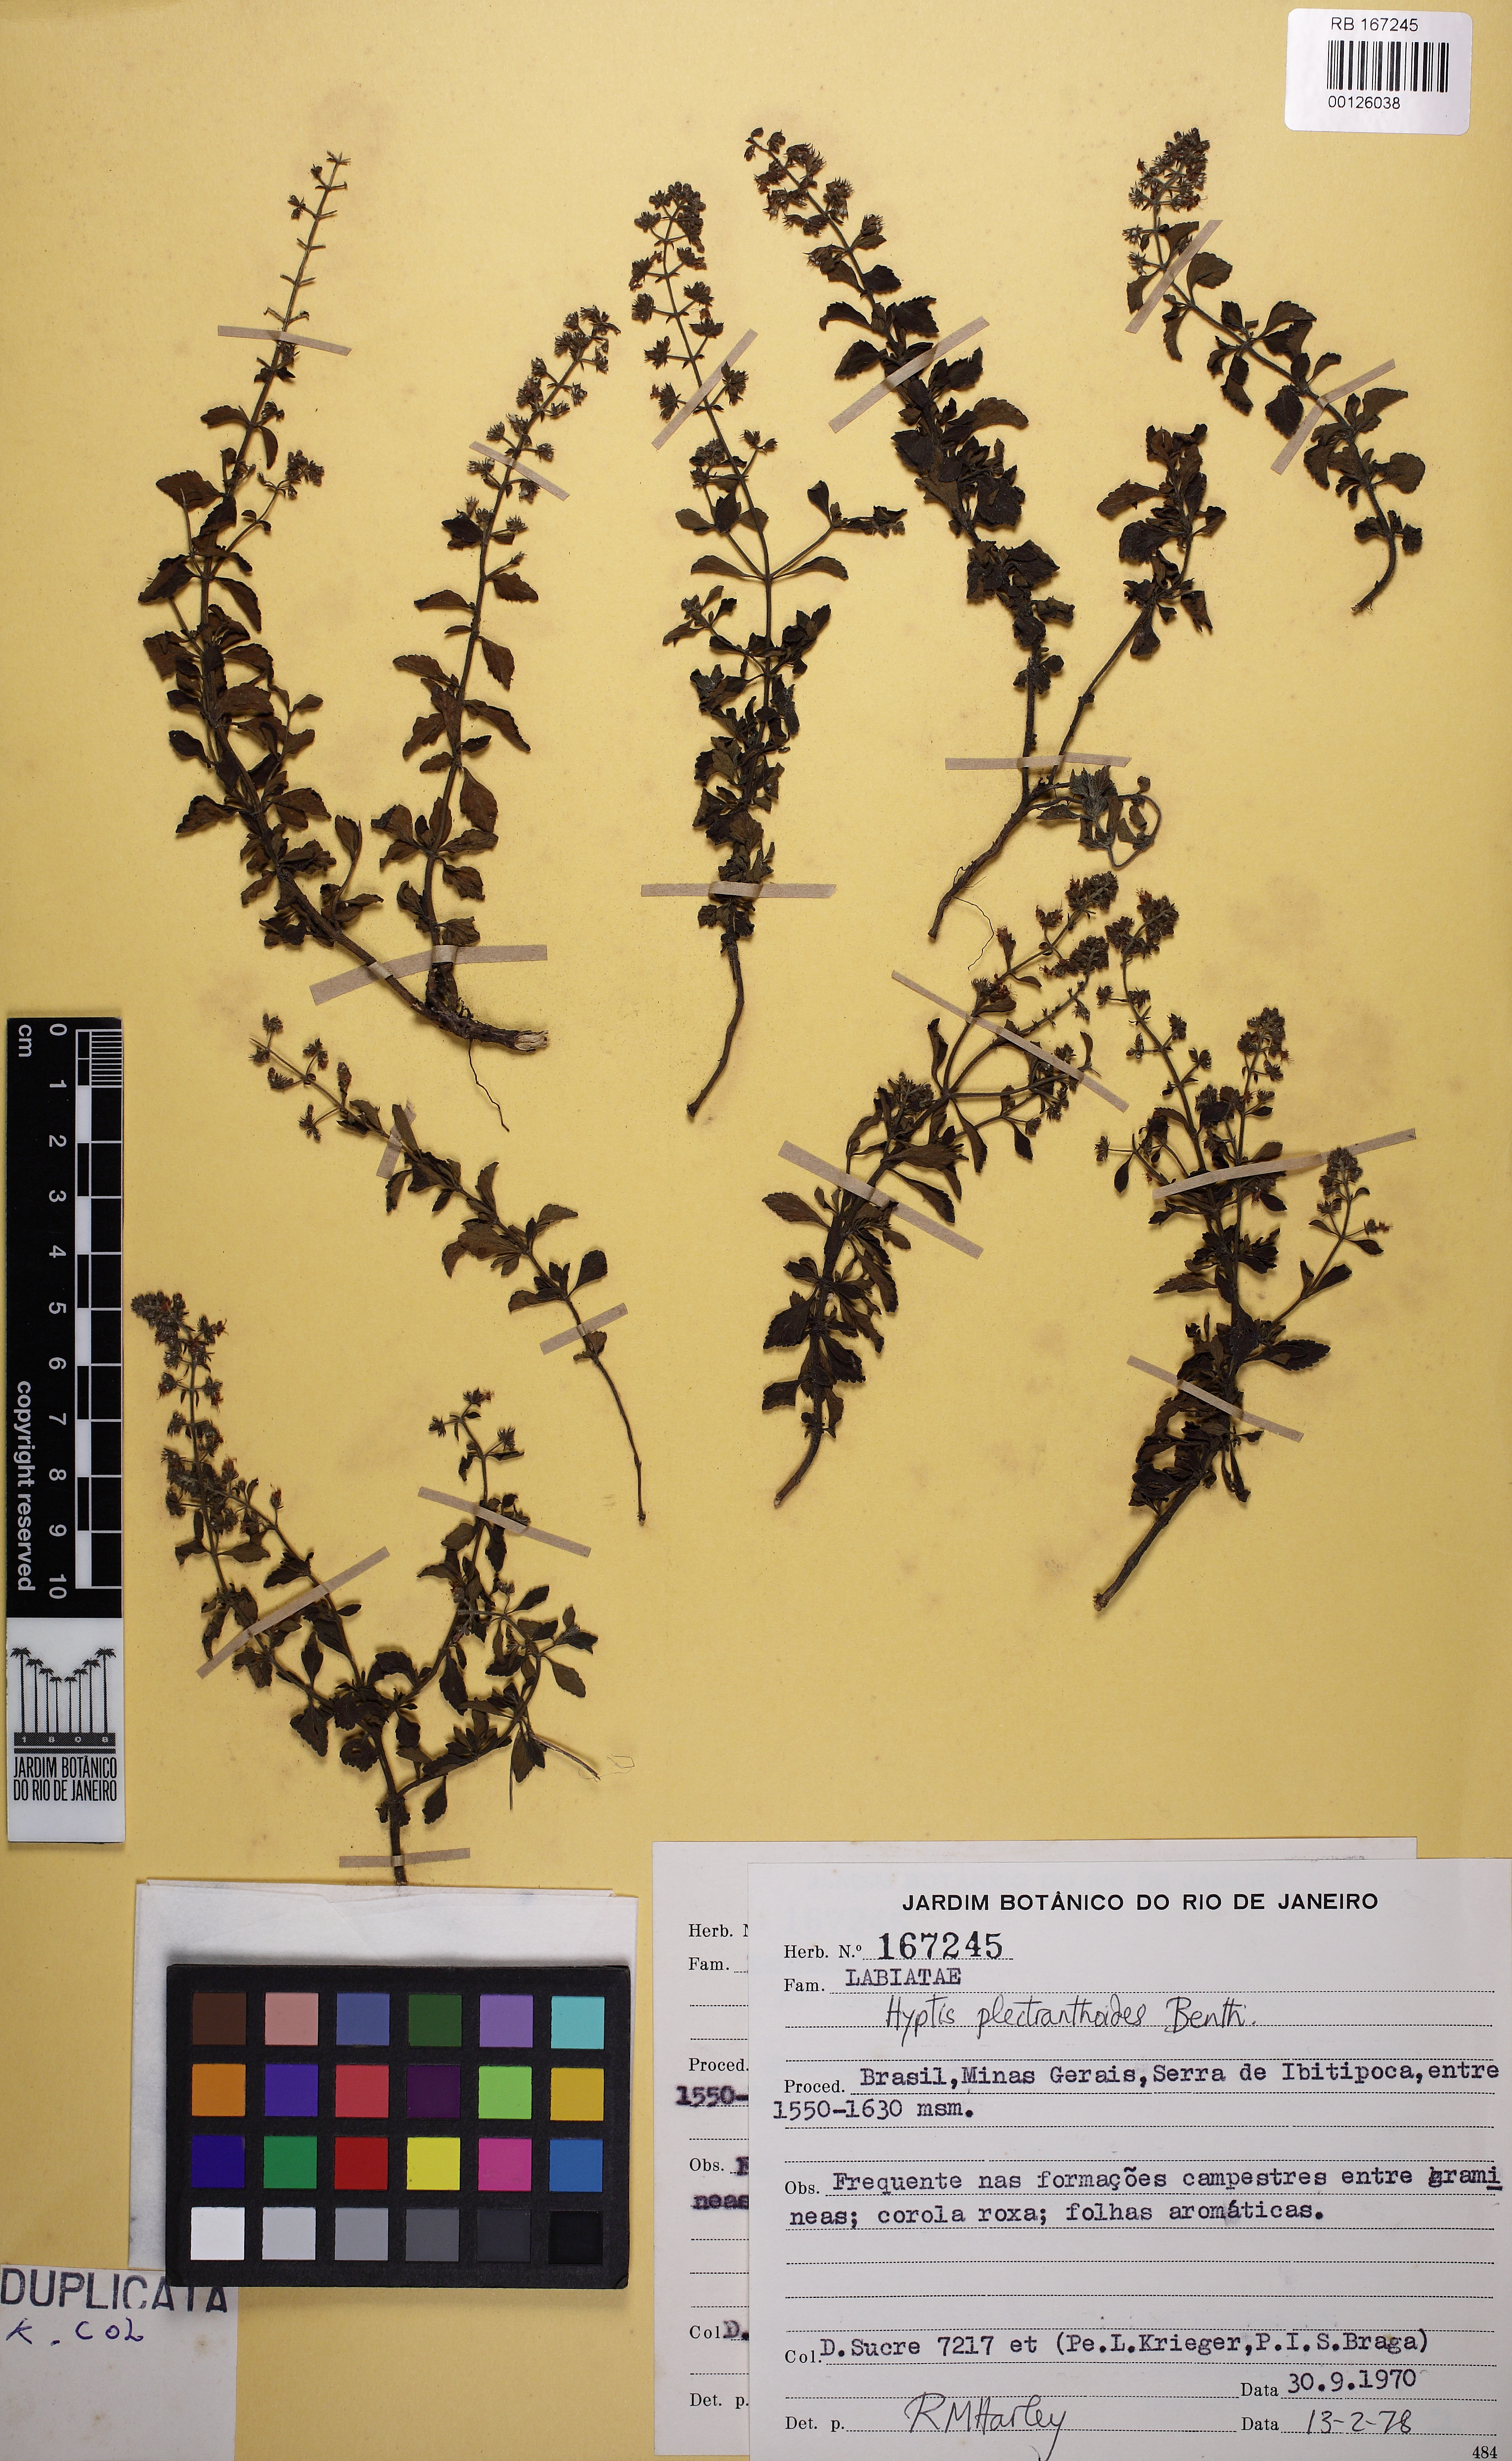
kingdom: Plantae
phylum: Tracheophyta
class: Magnoliopsida
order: Lamiales
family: Lamiaceae
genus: Cantinoa
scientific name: Cantinoa plectranthoides
